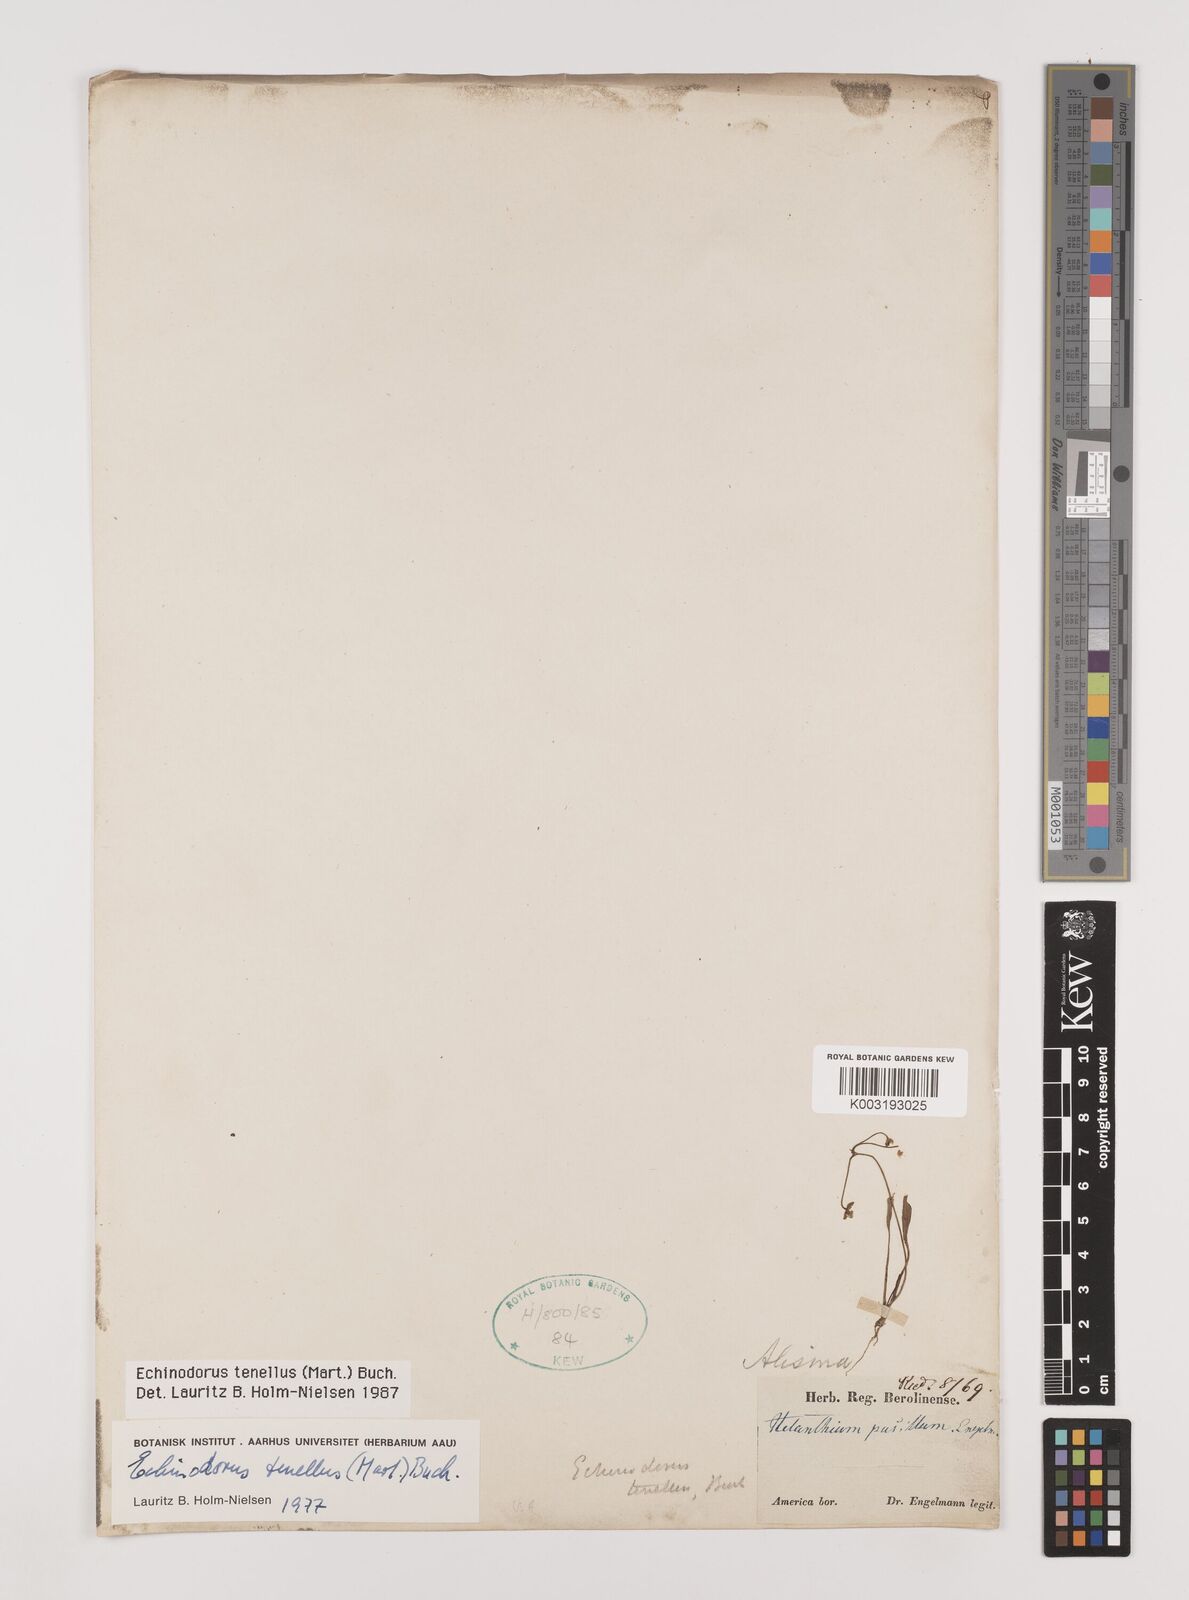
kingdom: Plantae
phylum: Tracheophyta
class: Liliopsida
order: Alismatales
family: Alismataceae
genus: Helanthium
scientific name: Helanthium tenellum
